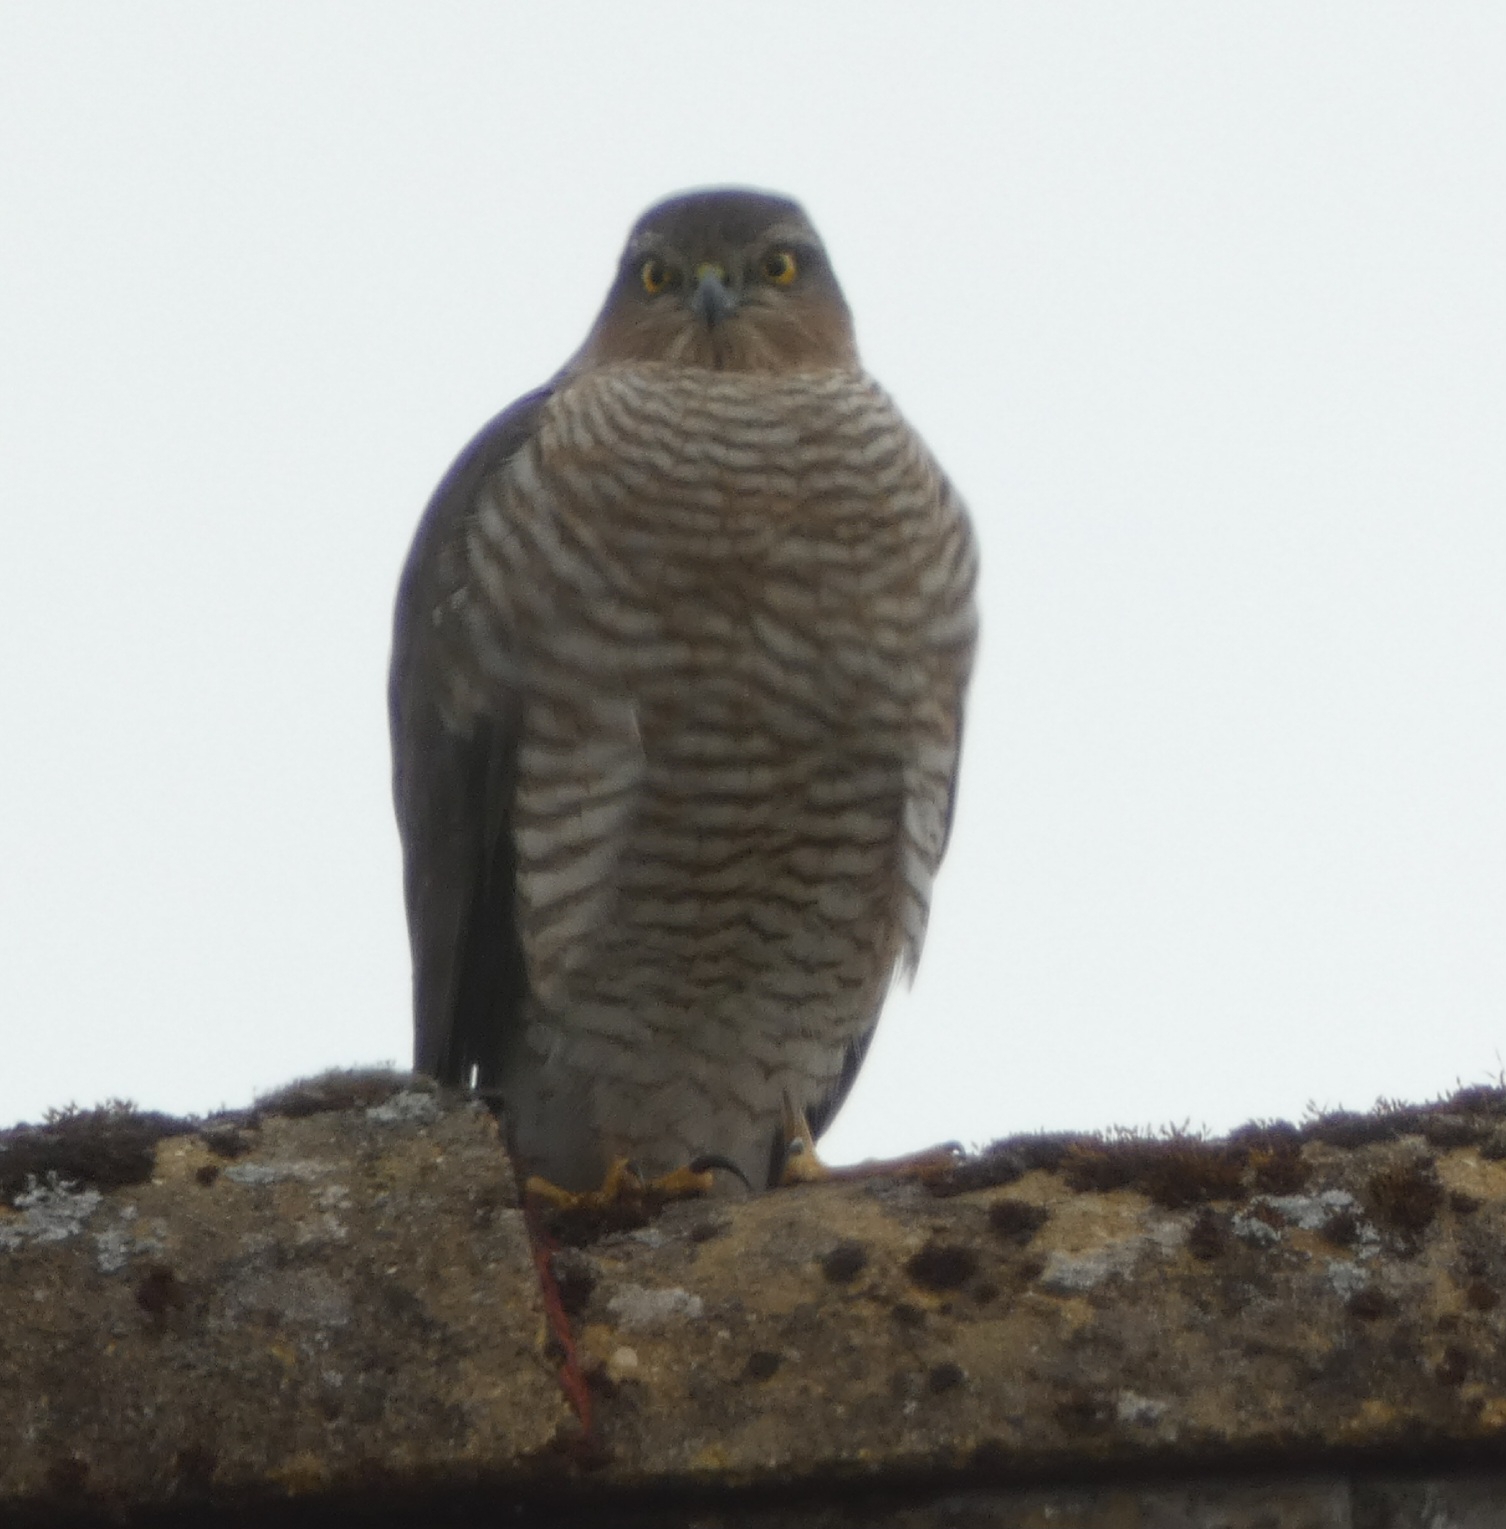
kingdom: Animalia
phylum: Chordata
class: Aves
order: Accipitriformes
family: Accipitridae
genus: Accipiter
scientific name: Accipiter nisus
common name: Spurvehøg
